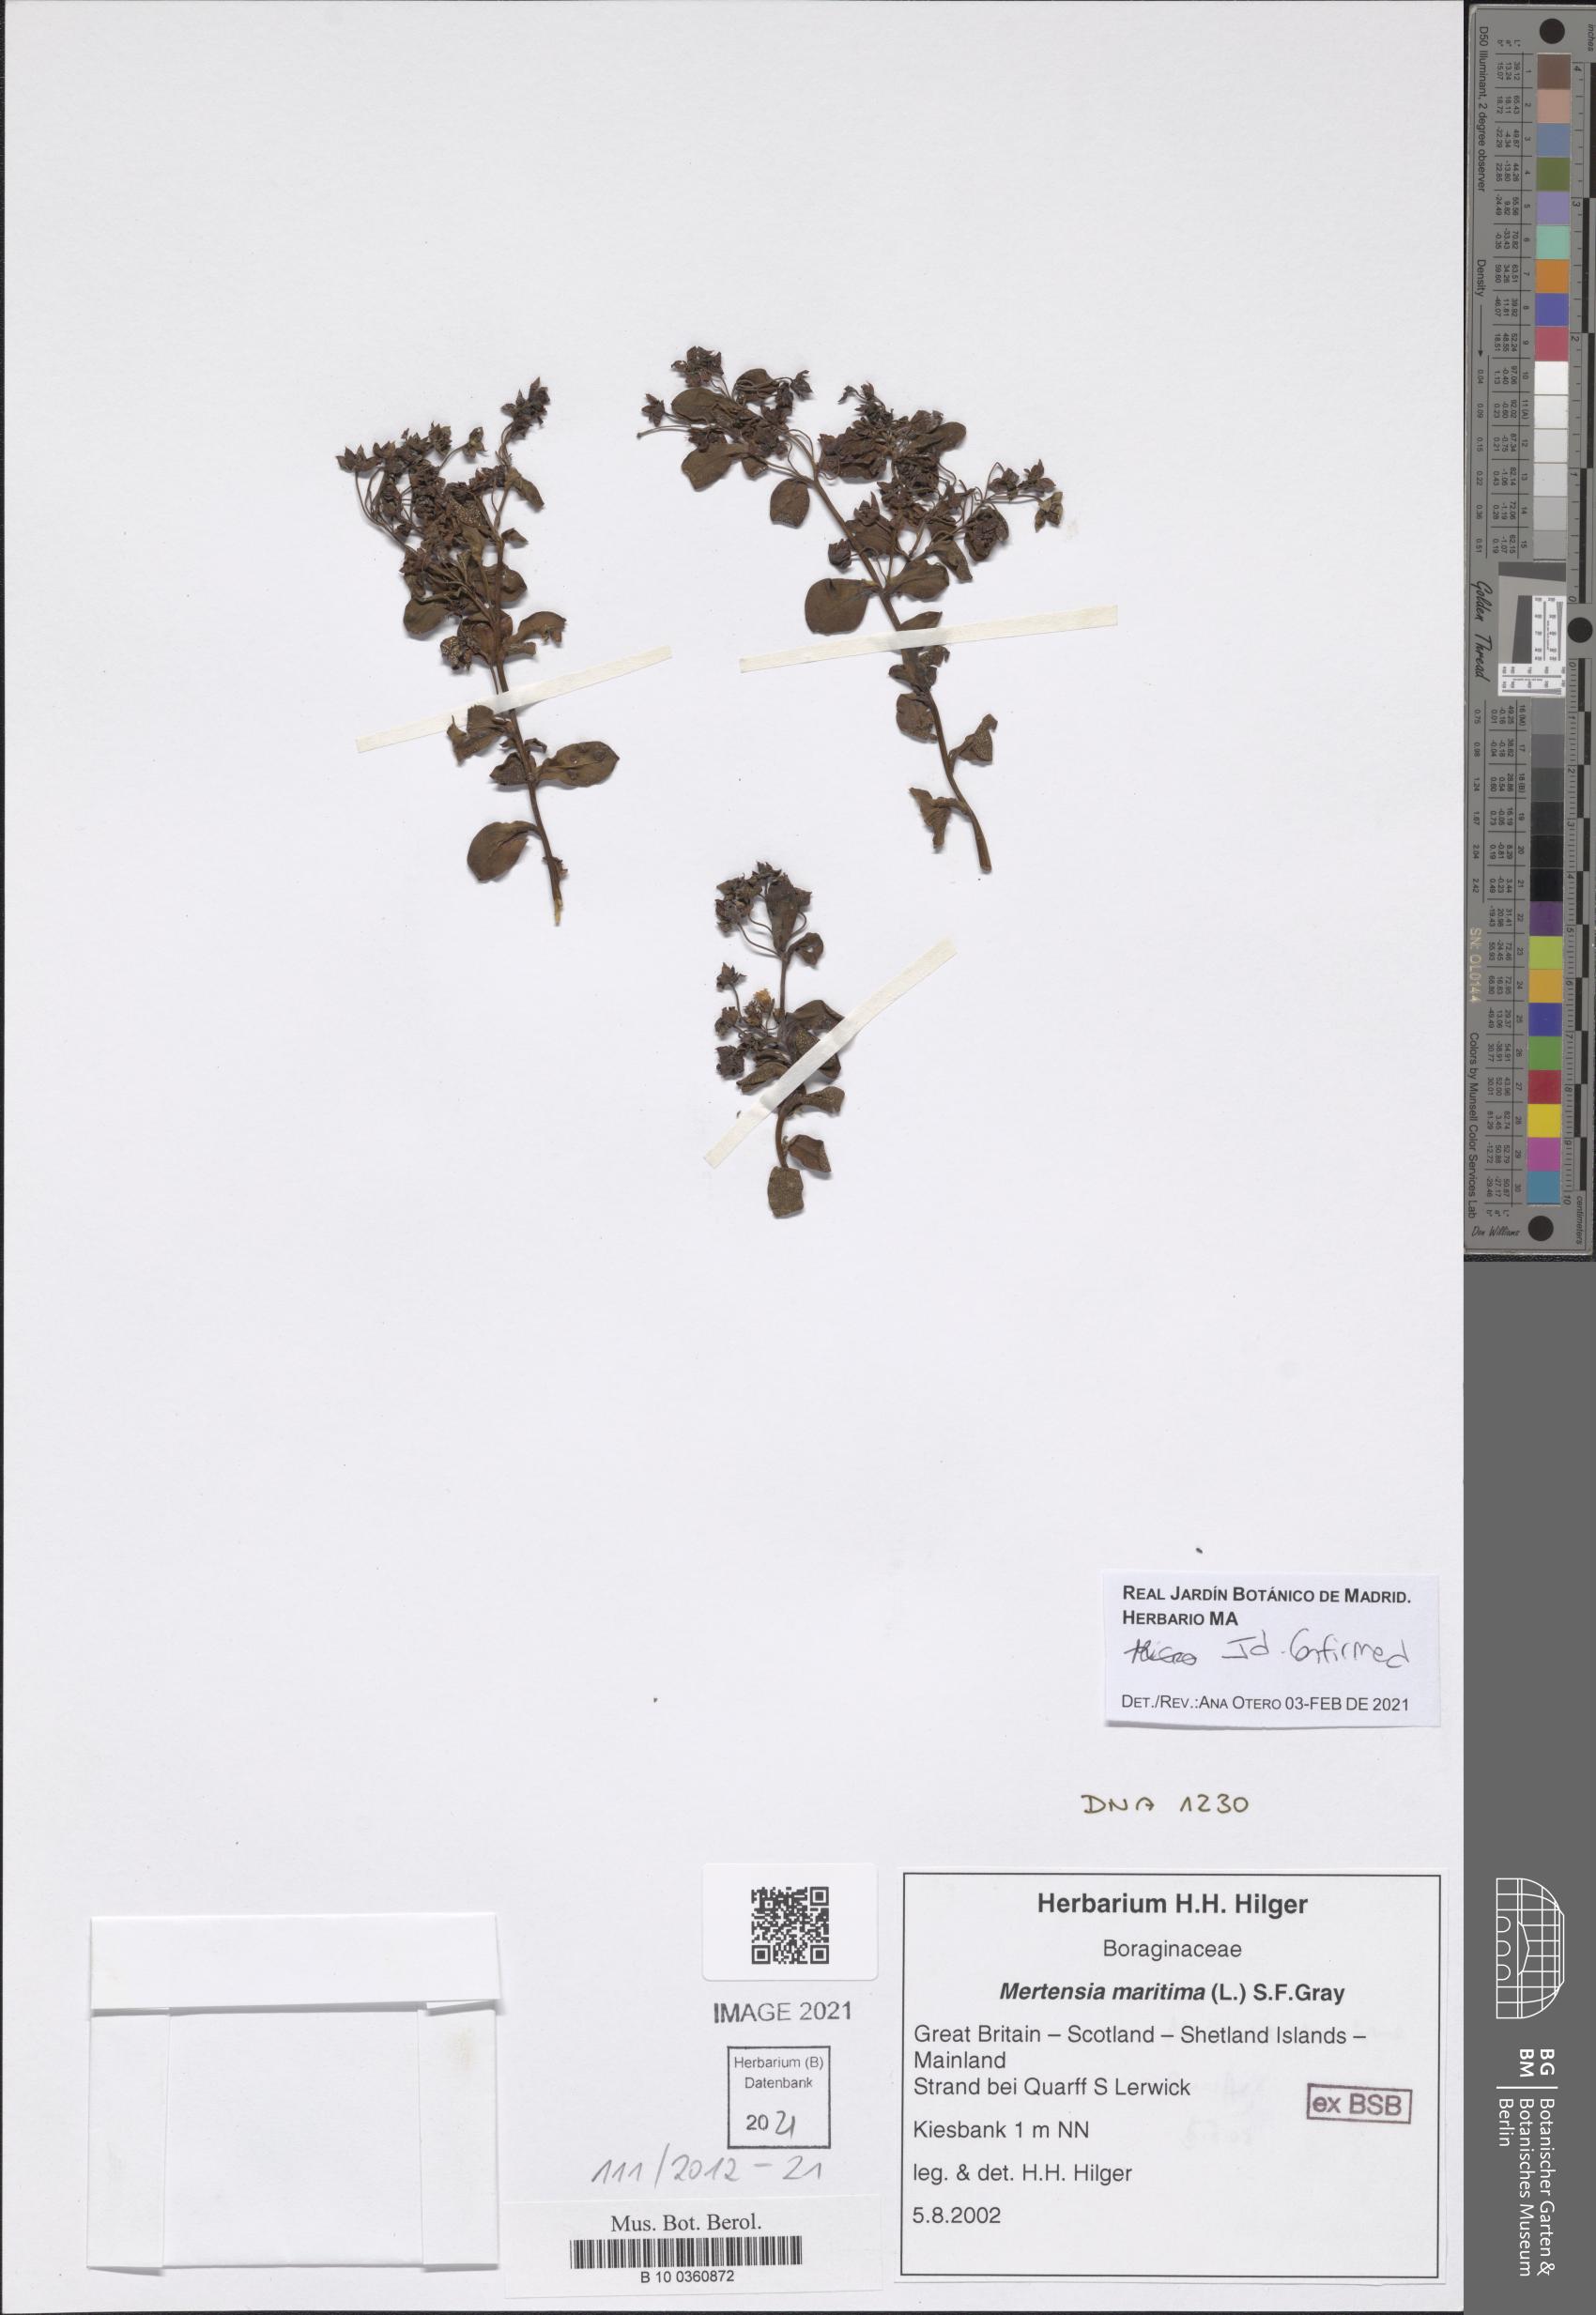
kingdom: Plantae
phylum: Tracheophyta
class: Magnoliopsida
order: Boraginales
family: Boraginaceae
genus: Mertensia
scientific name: Mertensia maritima
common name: Oysterplant
